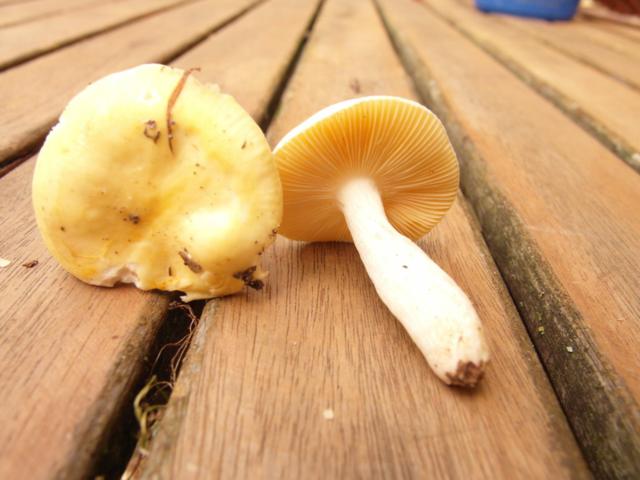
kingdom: Fungi
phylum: Basidiomycota
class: Agaricomycetes
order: Russulales
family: Russulaceae
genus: Russula
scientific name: Russula risigallina
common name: abrikos-skørhat
